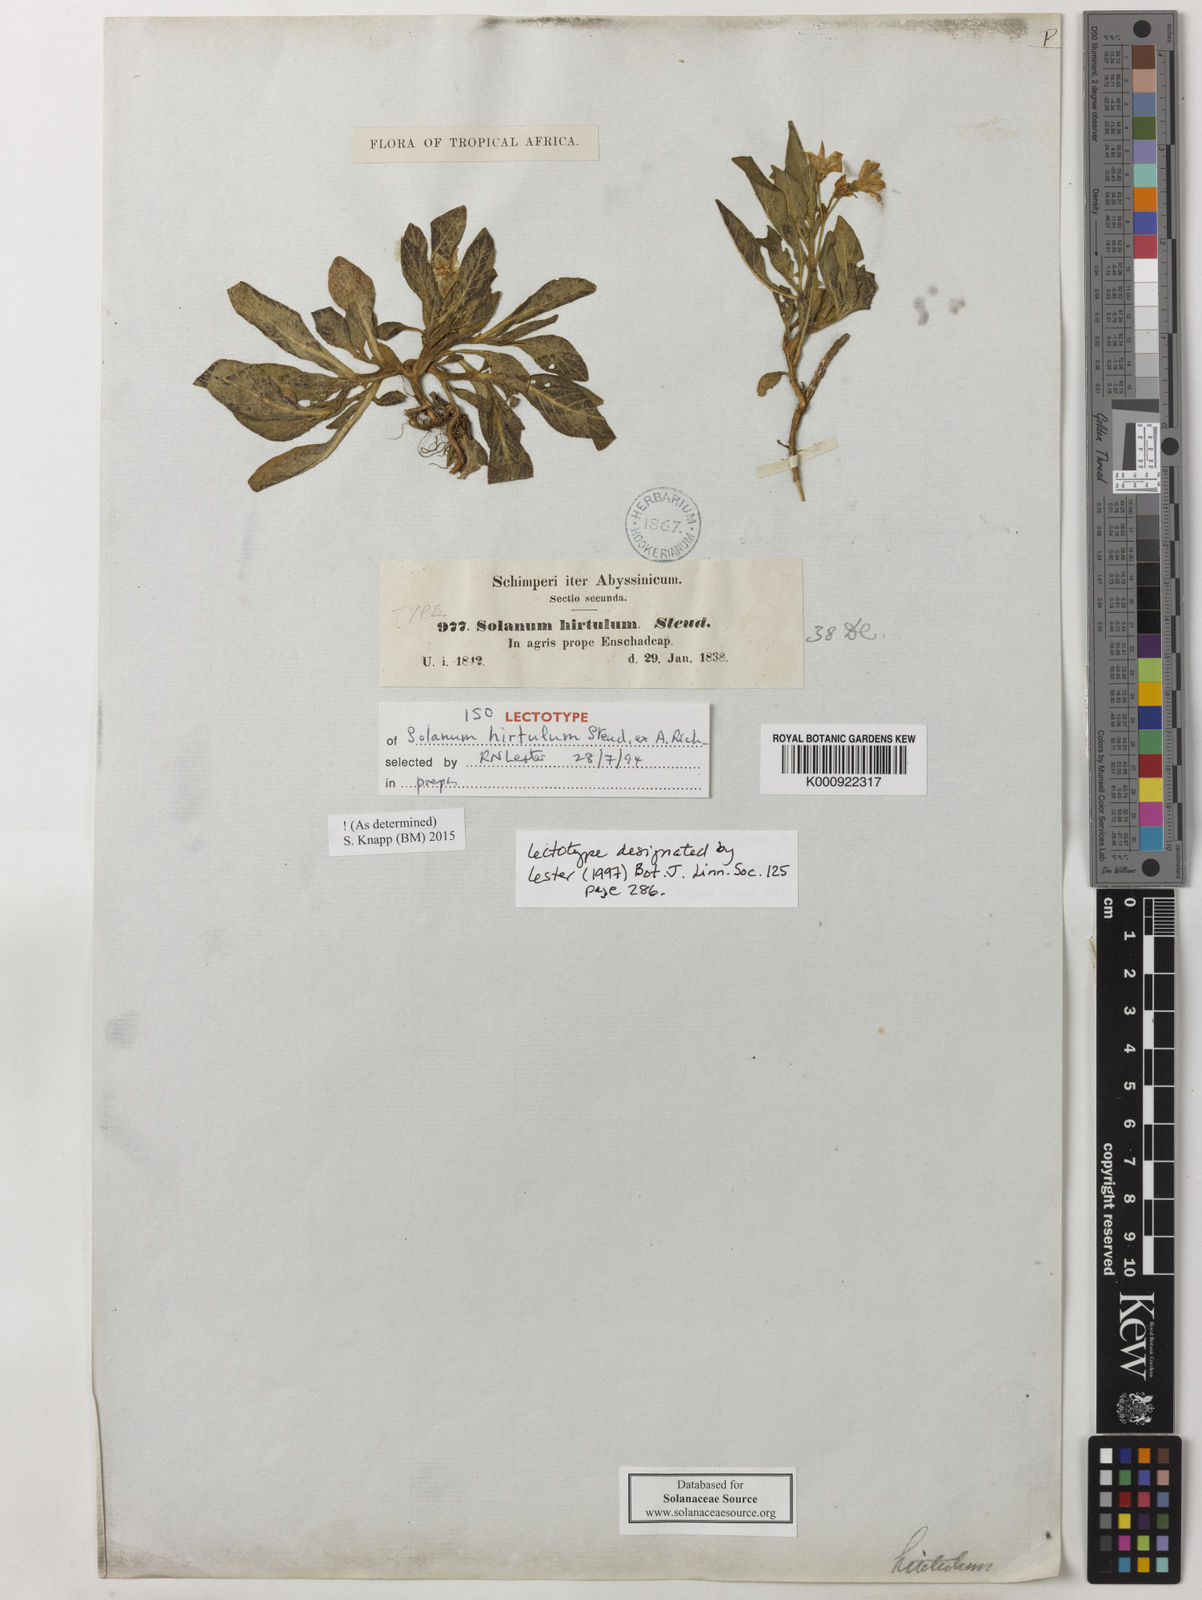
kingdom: Plantae
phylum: Tracheophyta
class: Magnoliopsida
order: Solanales
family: Solanaceae
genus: Solanum
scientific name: Solanum hirtulum
